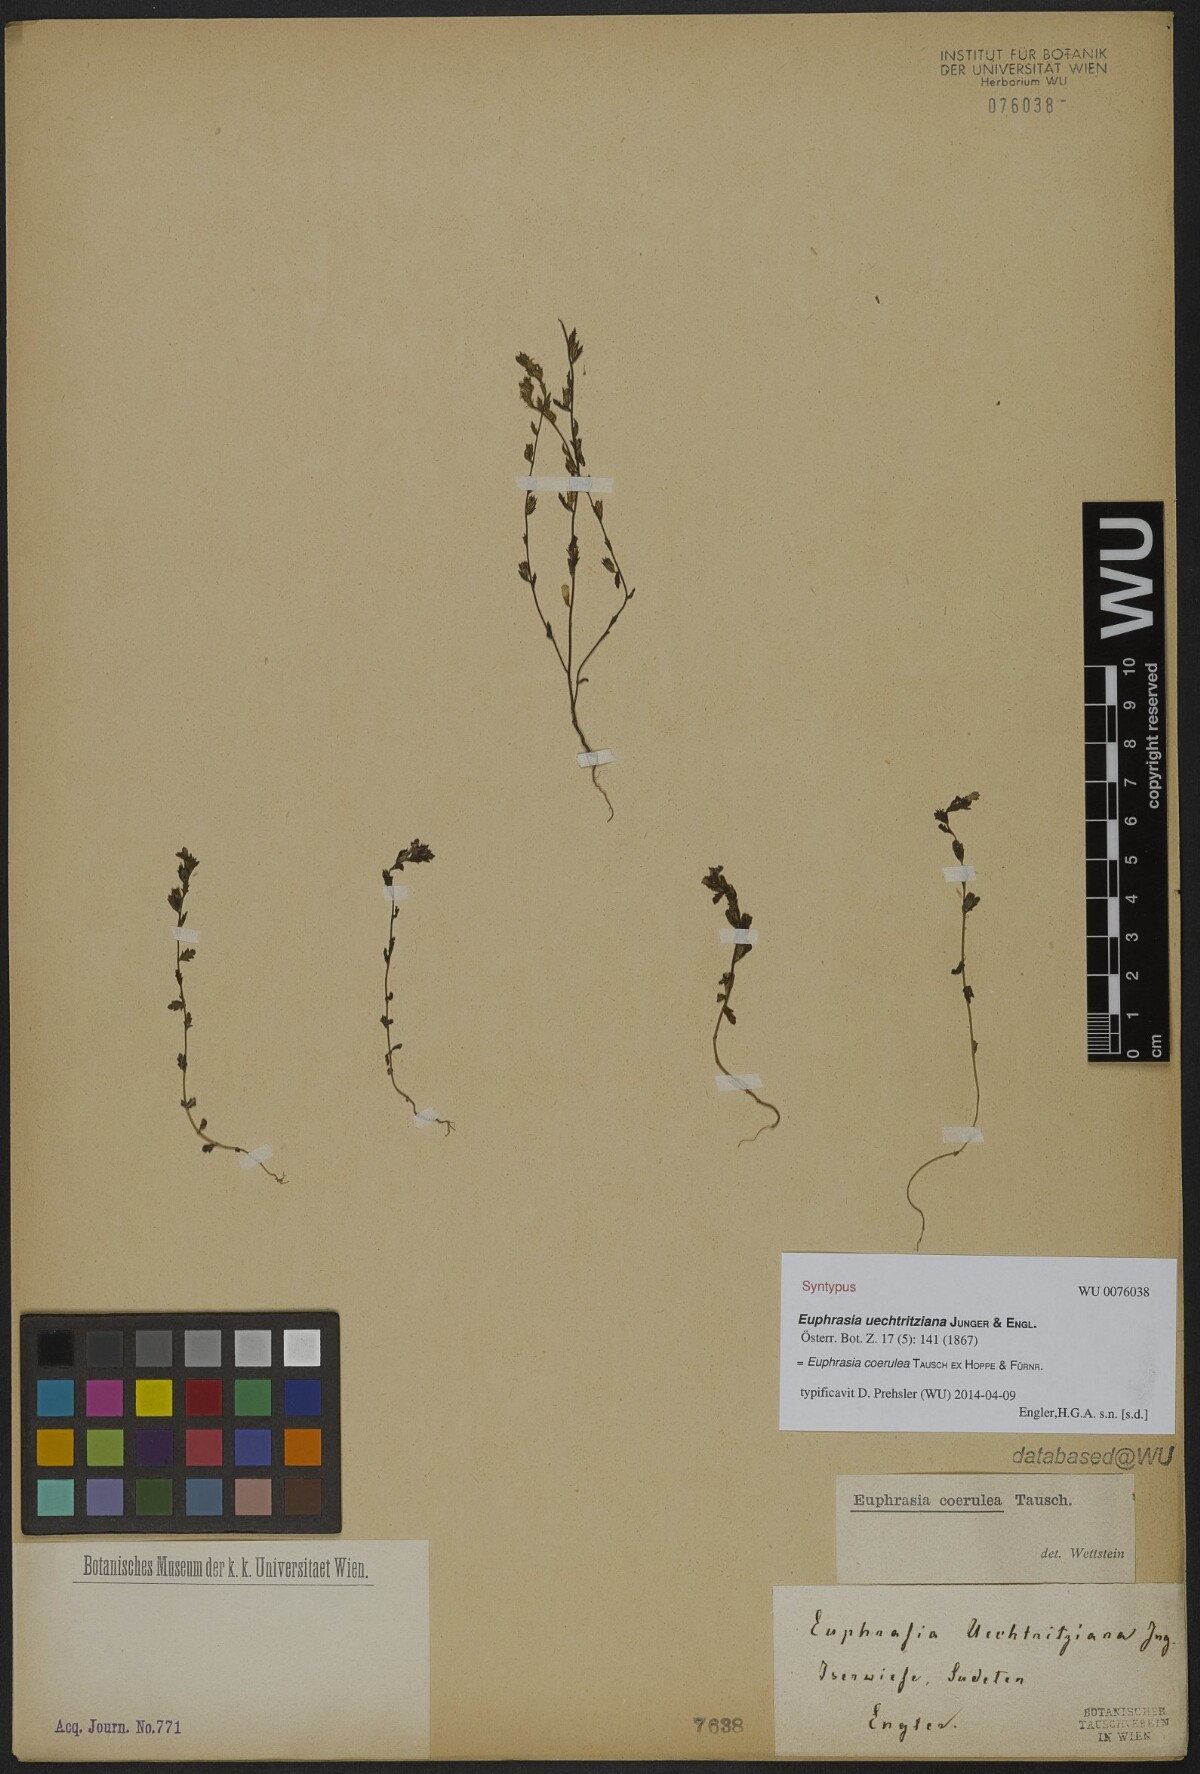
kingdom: Plantae
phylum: Tracheophyta
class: Magnoliopsida
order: Lamiales
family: Orobanchaceae
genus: Euphrasia
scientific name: Euphrasia nemorosa
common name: Common eyebright
